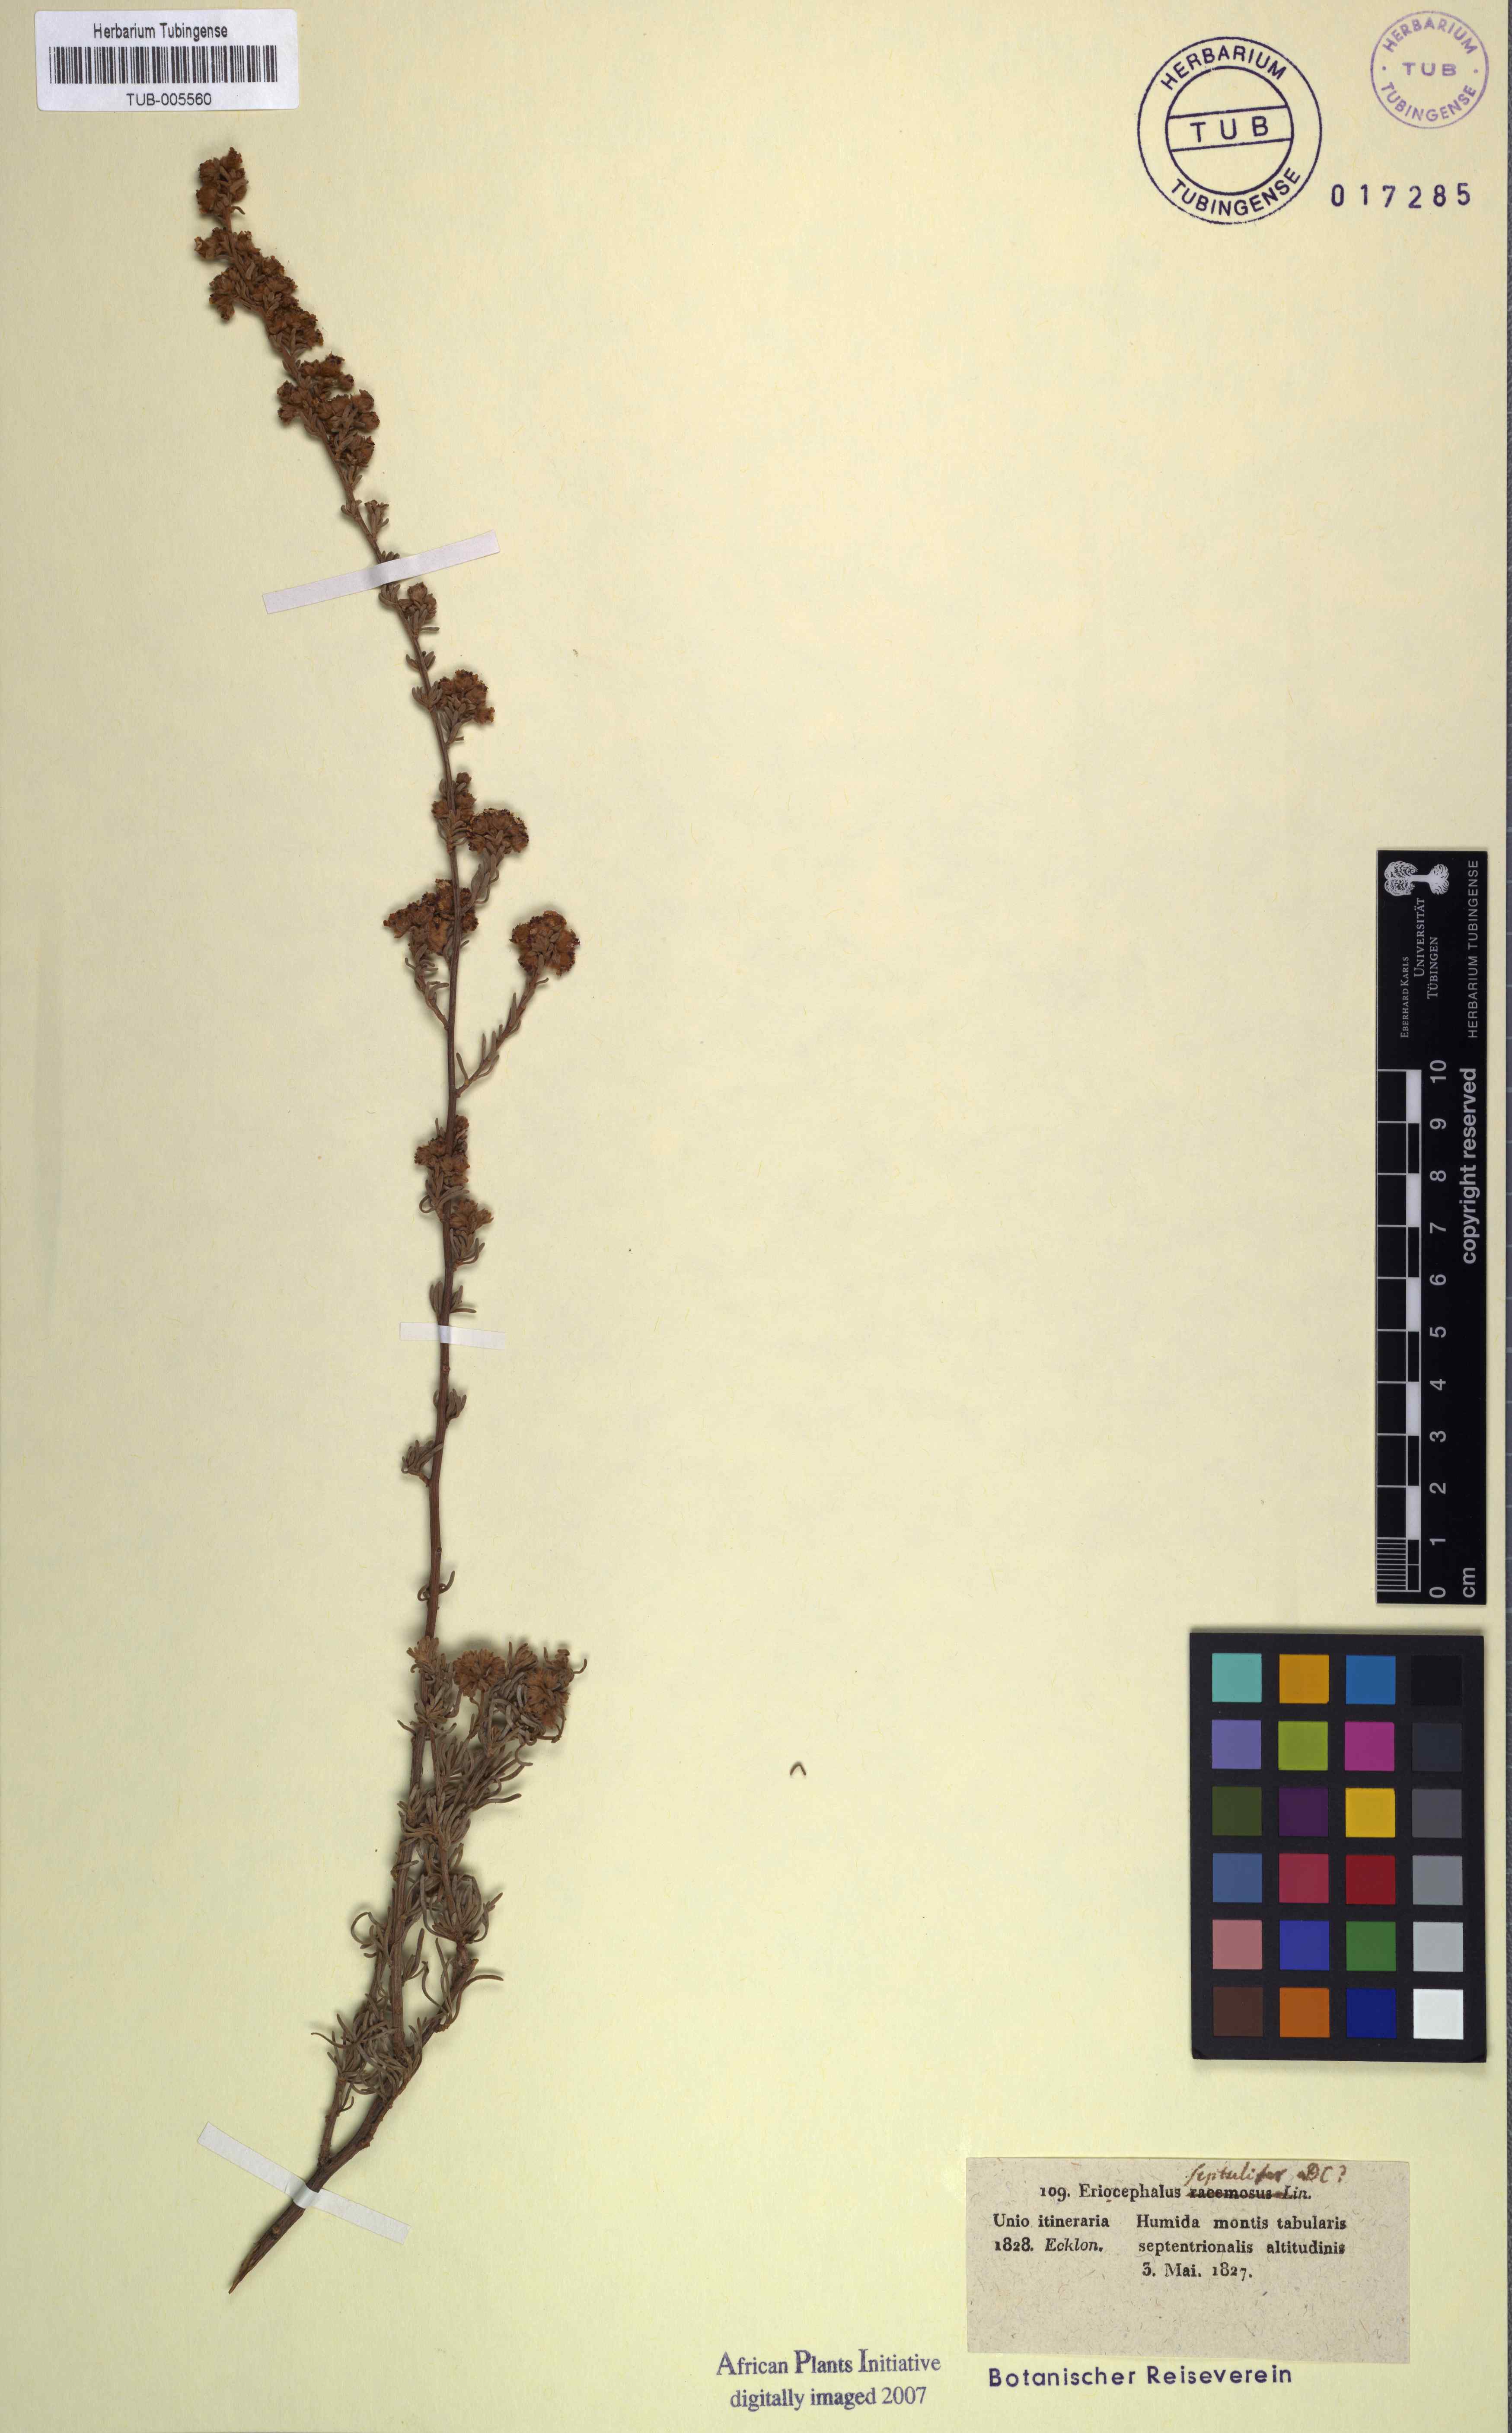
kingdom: Plantae
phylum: Tracheophyta
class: Magnoliopsida
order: Asterales
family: Asteraceae
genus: Eriocephalus
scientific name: Eriocephalus africanus
